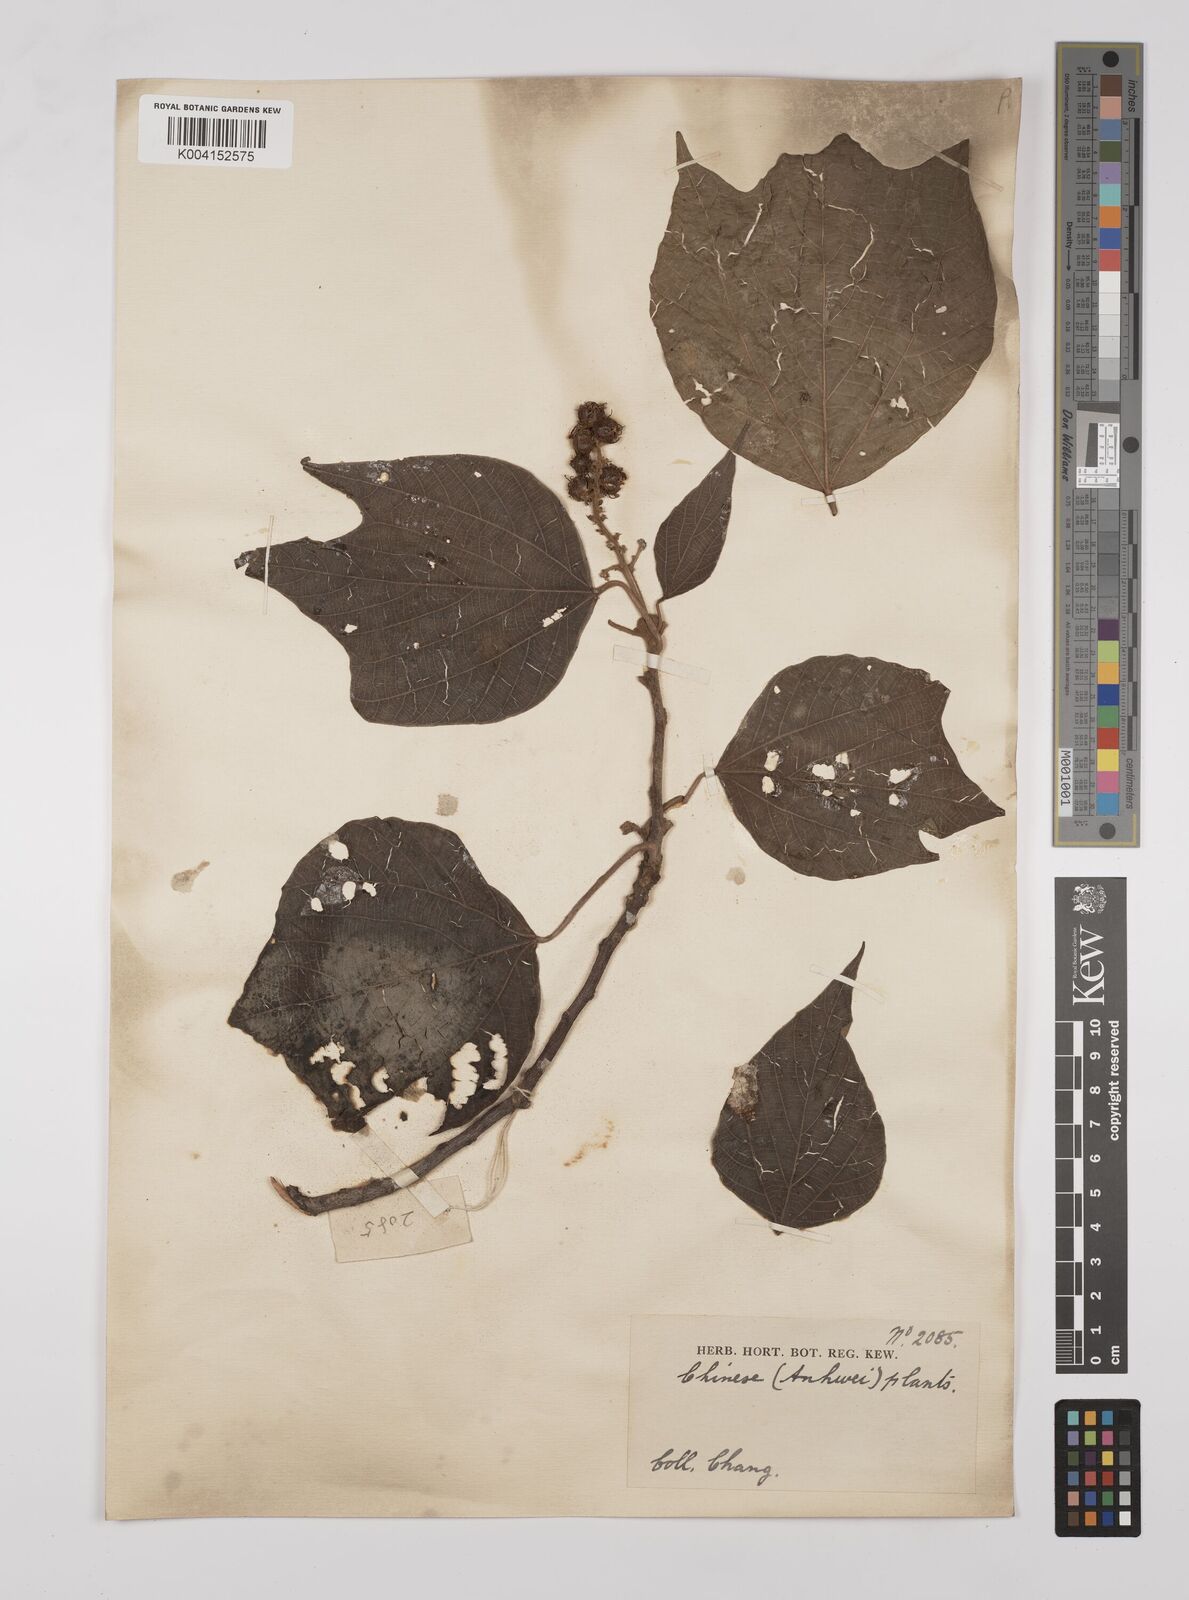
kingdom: Plantae
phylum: Tracheophyta
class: Magnoliopsida
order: Malpighiales
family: Euphorbiaceae
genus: Mallotus
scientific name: Mallotus japonicus
